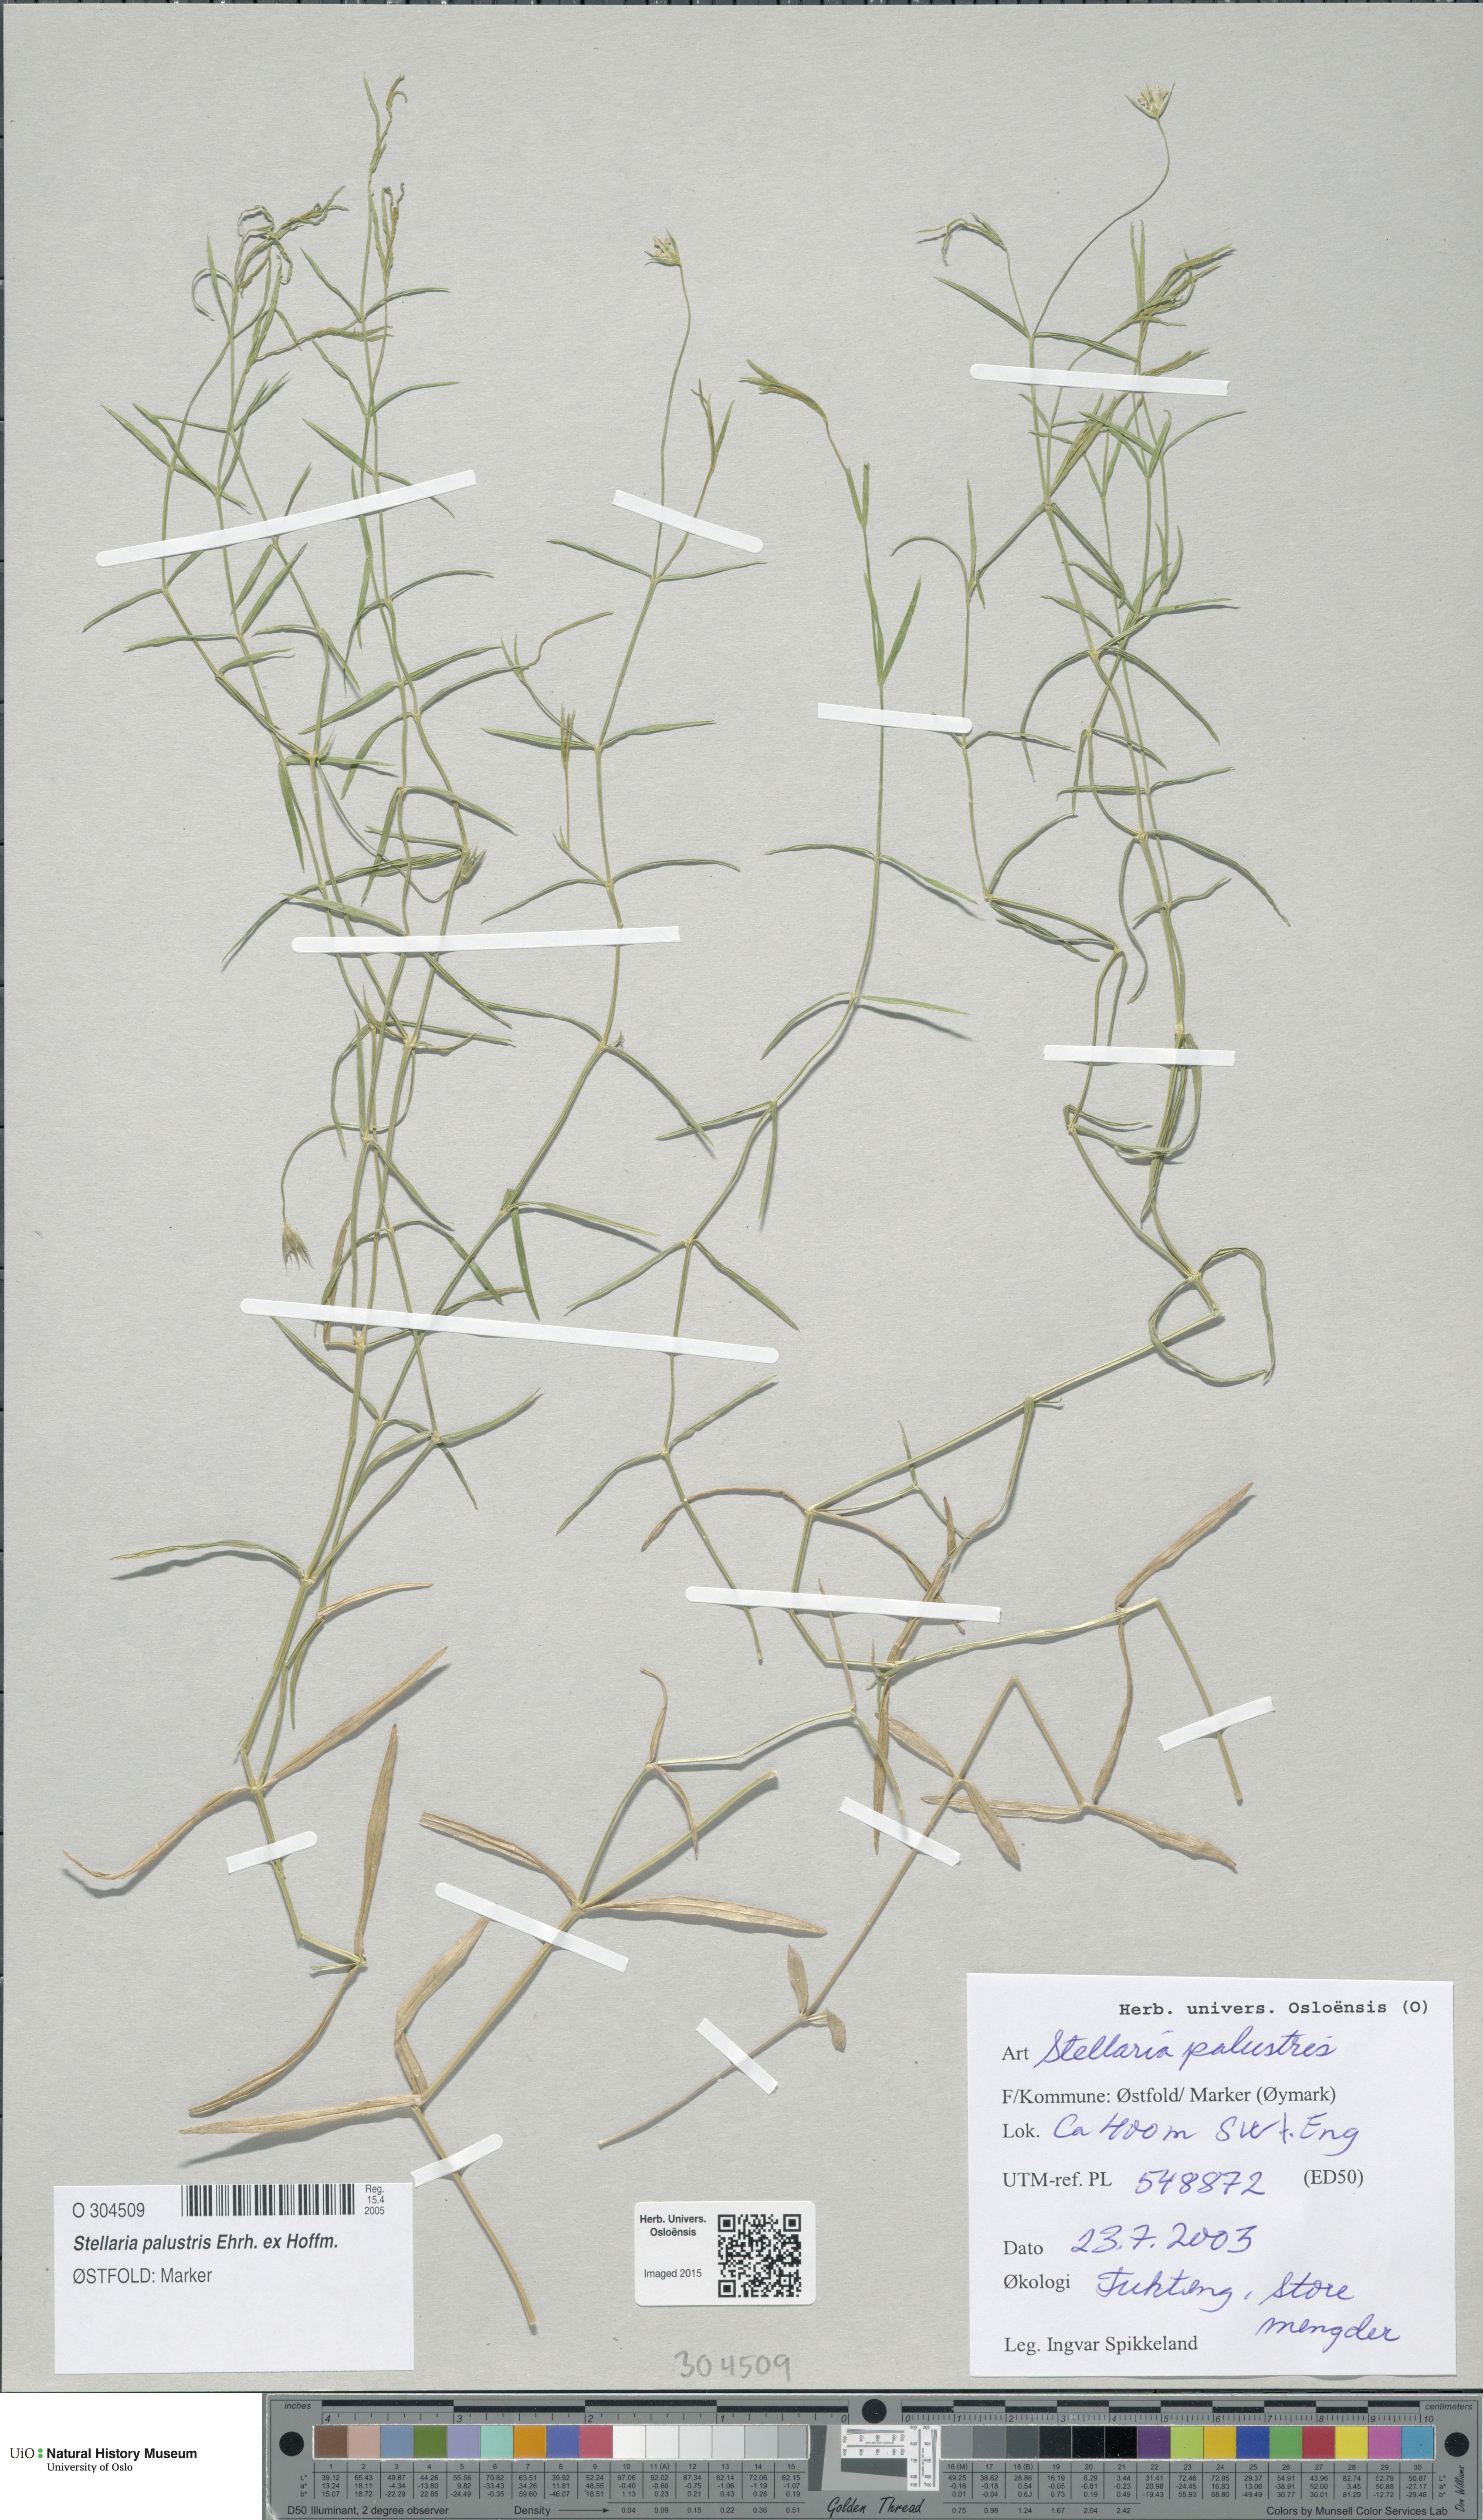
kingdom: Plantae
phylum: Tracheophyta
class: Magnoliopsida
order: Caryophyllales
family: Caryophyllaceae
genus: Stellaria
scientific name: Stellaria palustris
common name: Marsh stitchwort
